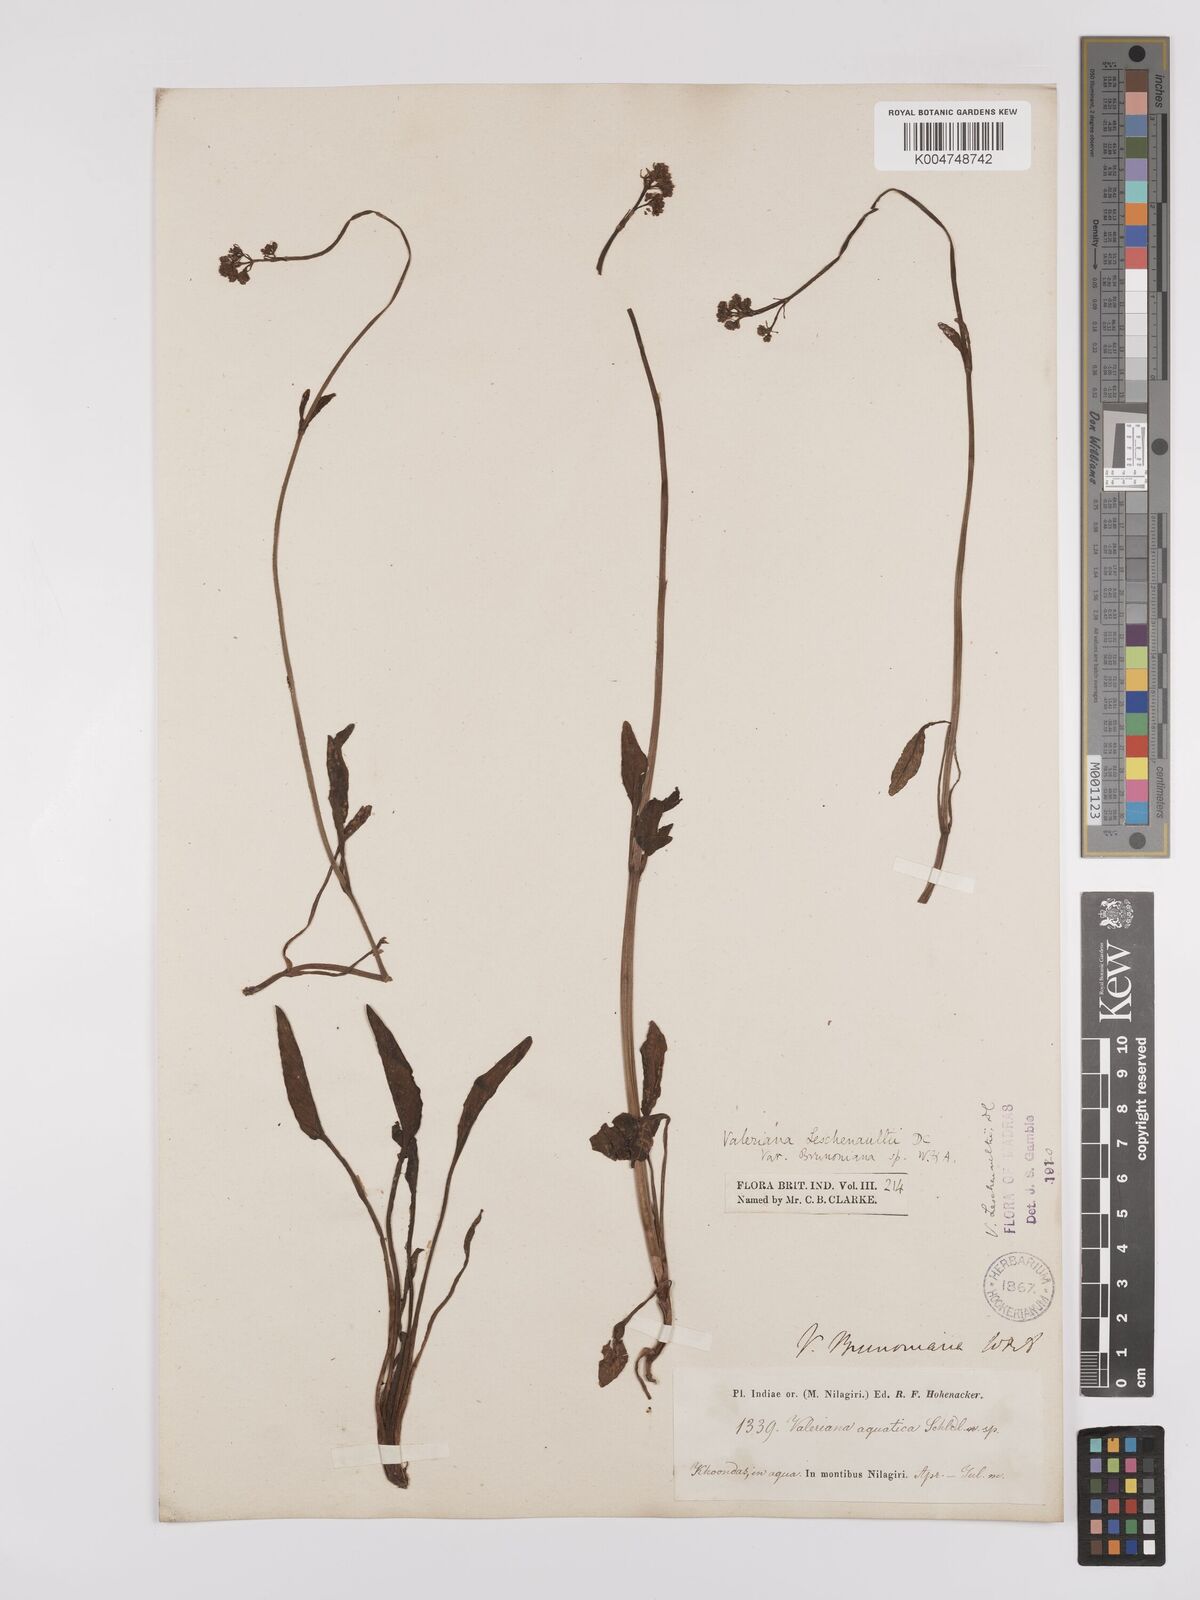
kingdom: Plantae
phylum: Tracheophyta
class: Magnoliopsida
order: Dipsacales
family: Caprifoliaceae
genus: Valeriana
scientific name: Valeriana leschenaultii
